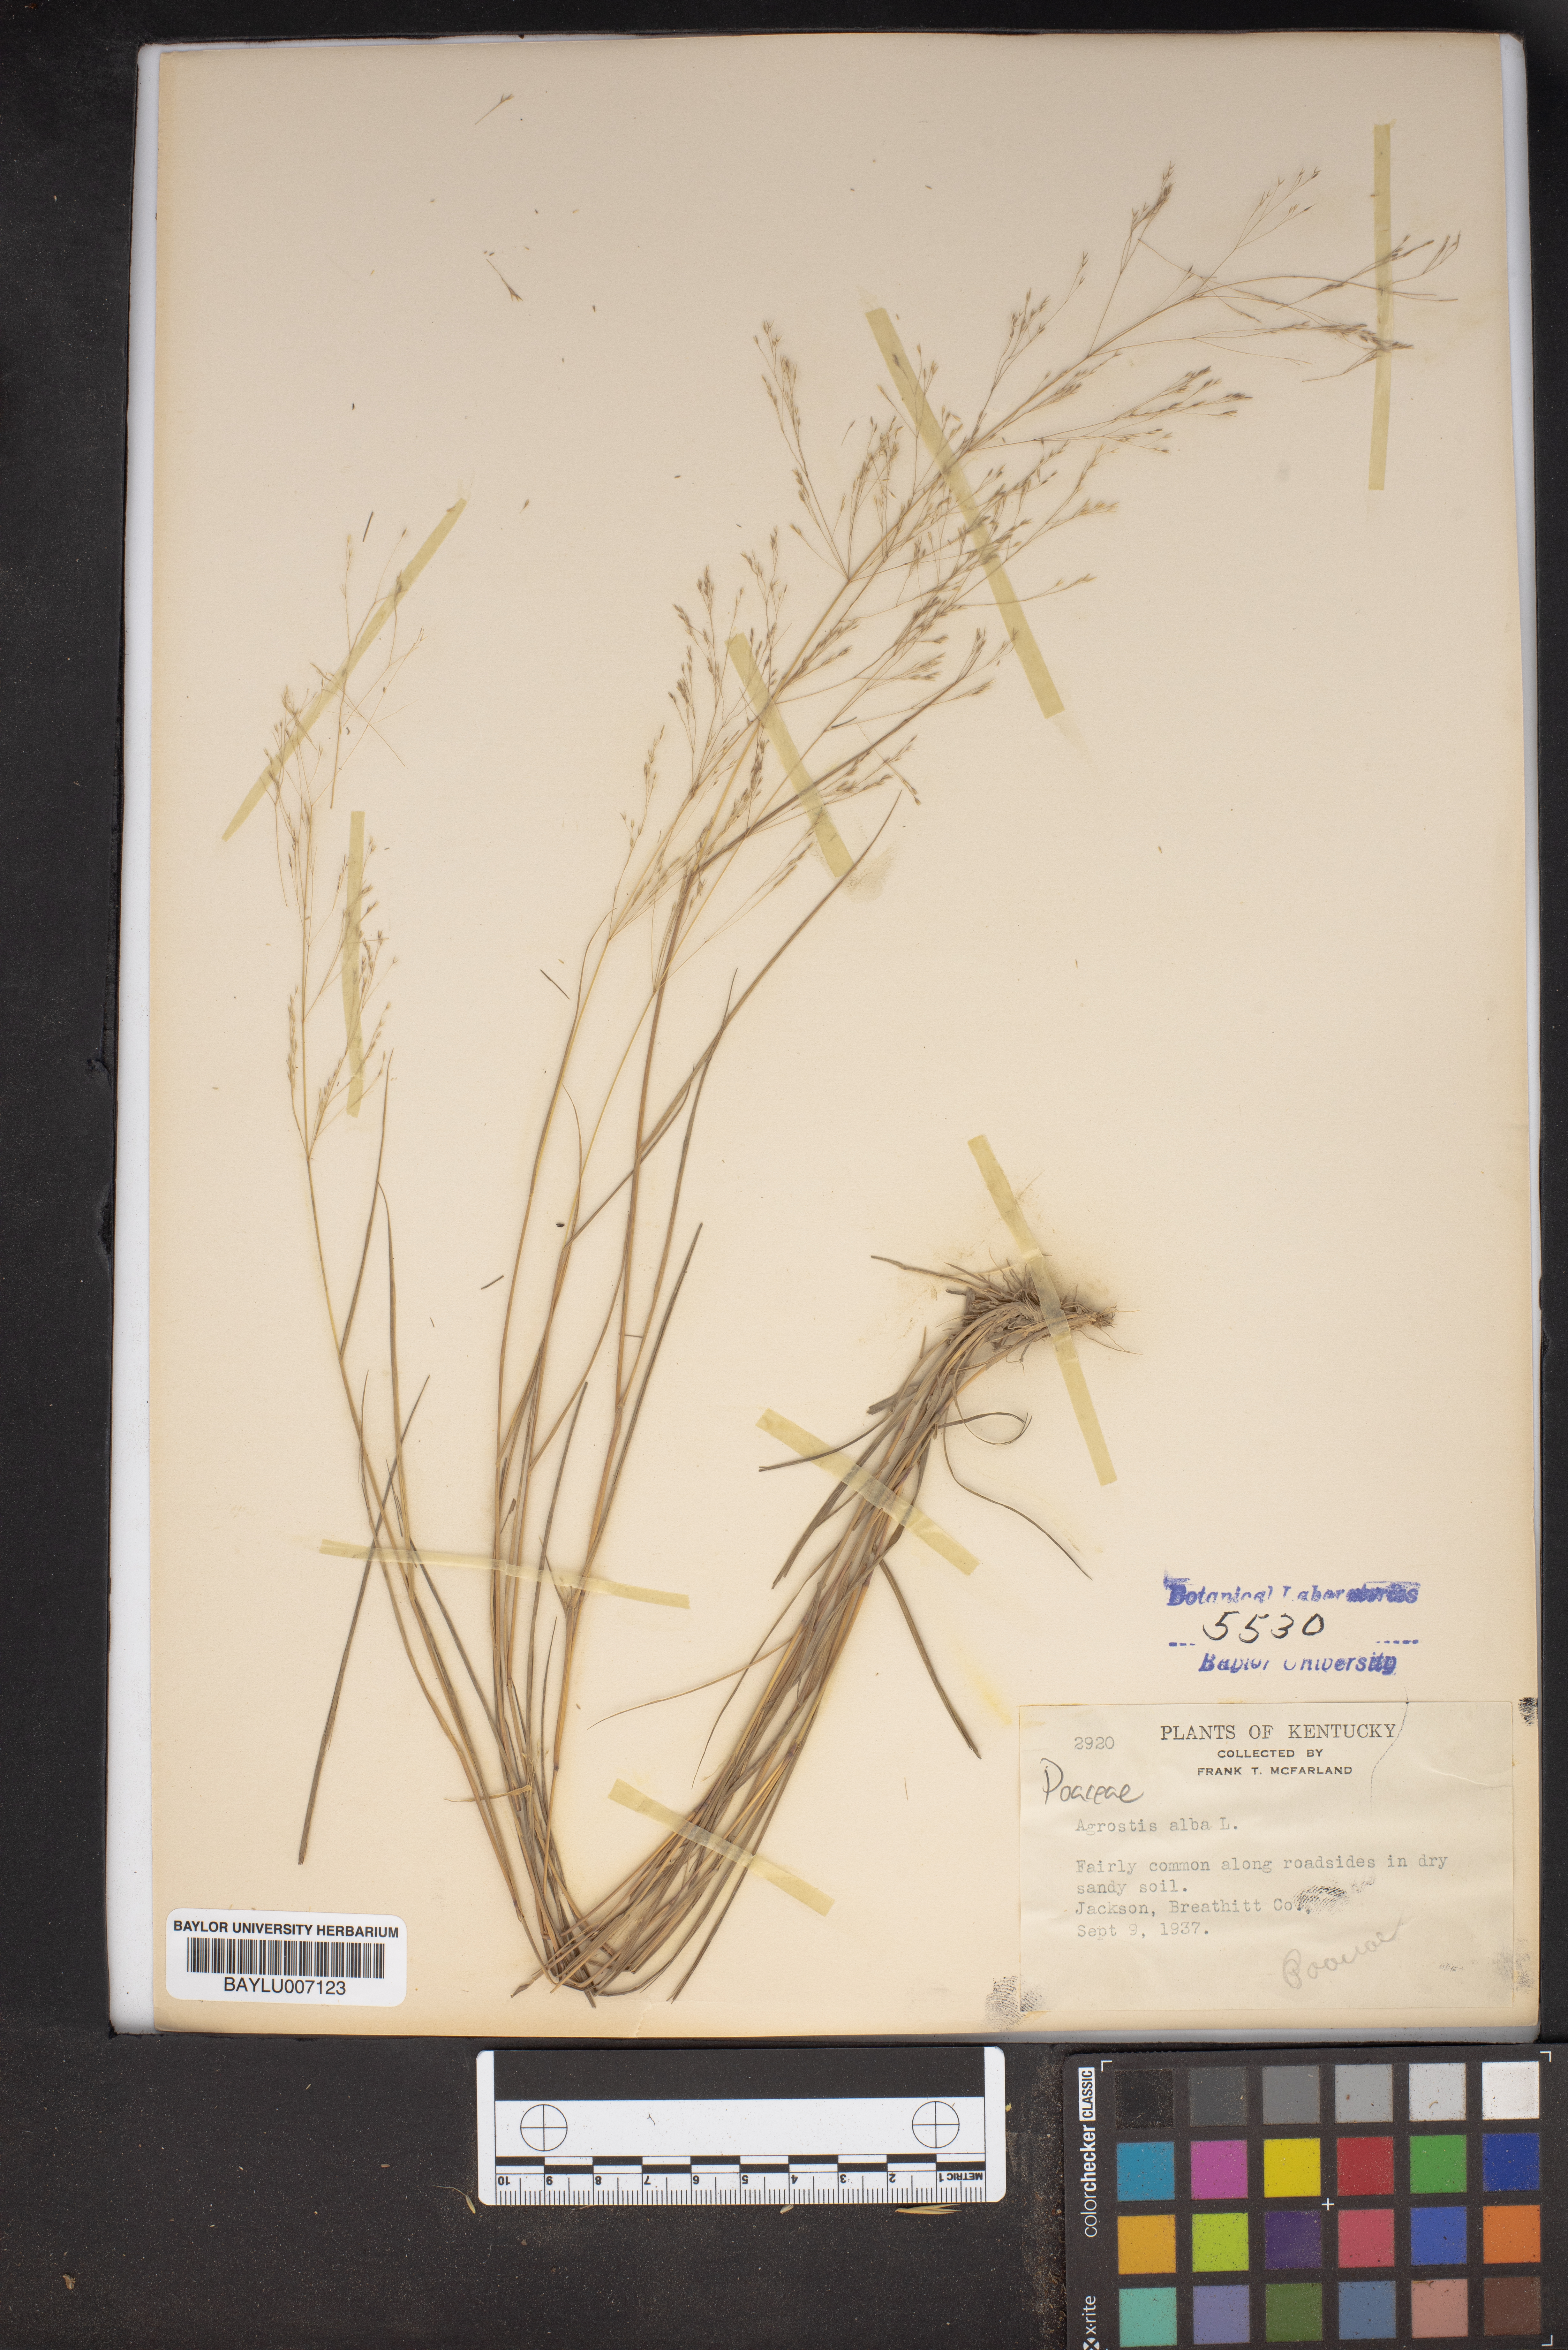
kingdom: Plantae
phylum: Tracheophyta
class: Liliopsida
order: Poales
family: Poaceae
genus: Agrostis
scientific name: Agrostis alba
